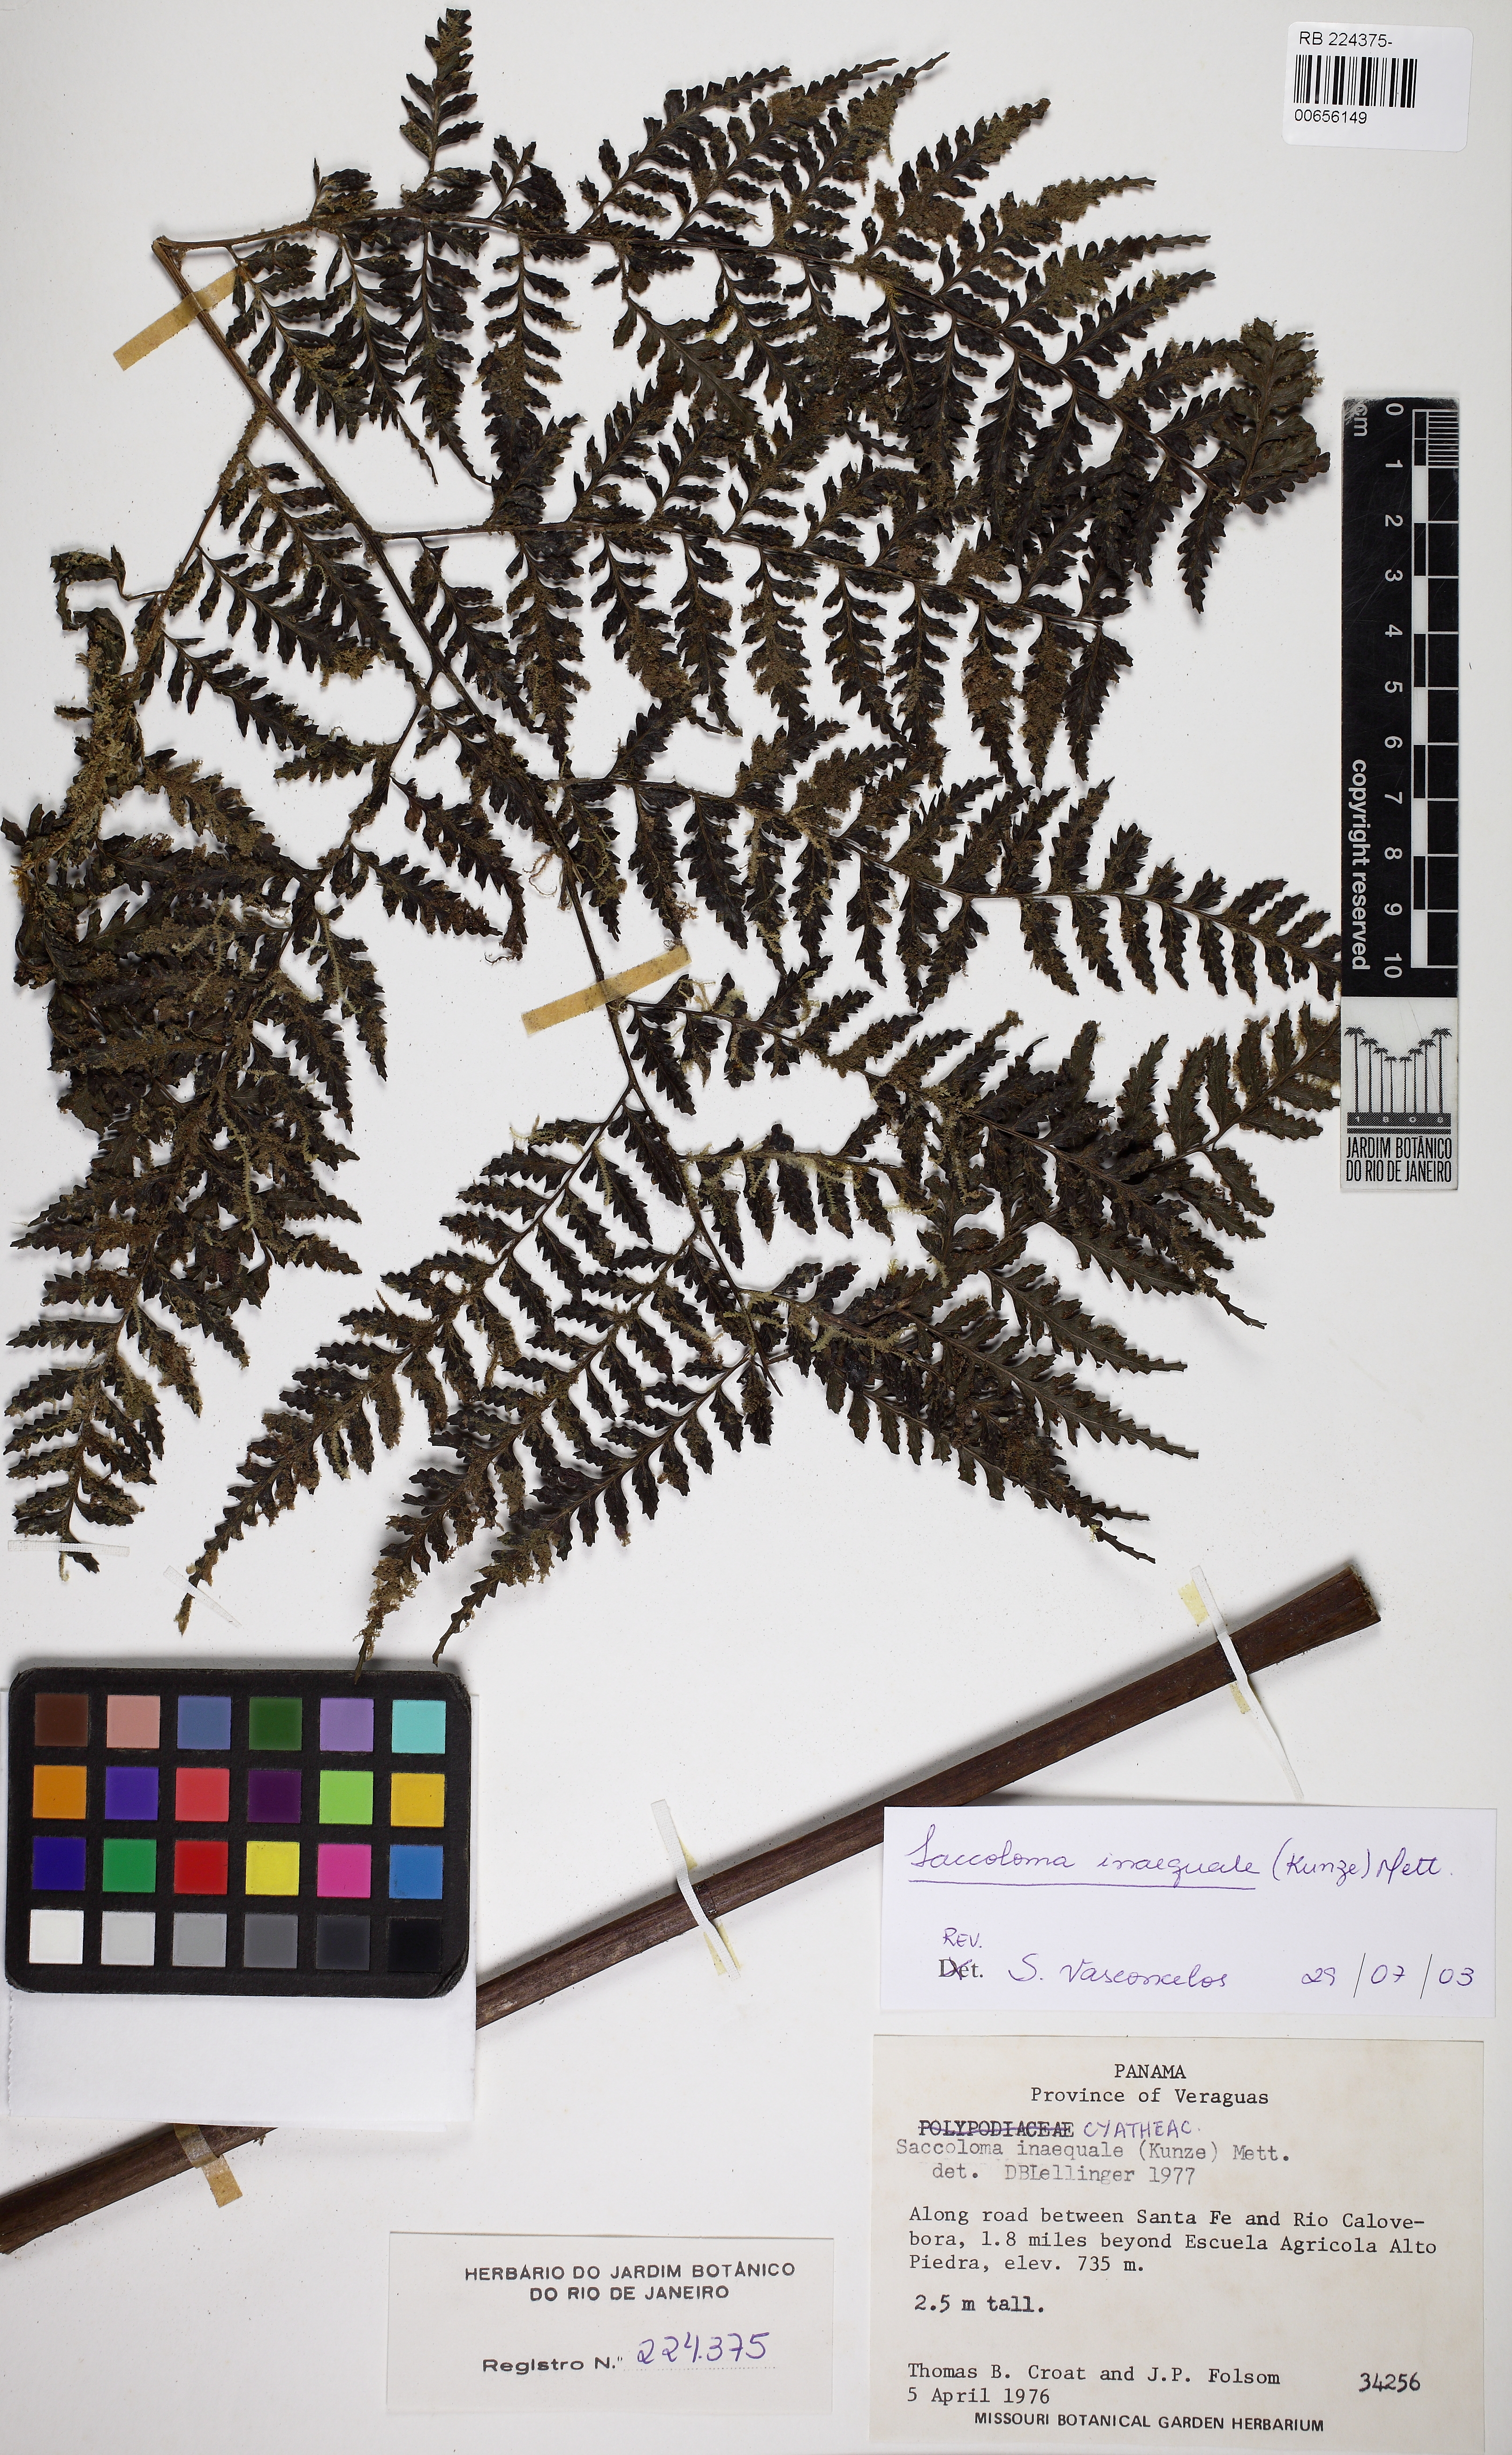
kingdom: Plantae
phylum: Tracheophyta
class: Polypodiopsida
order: Polypodiales
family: Saccolomataceae
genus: Saccoloma
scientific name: Saccoloma inaequale
